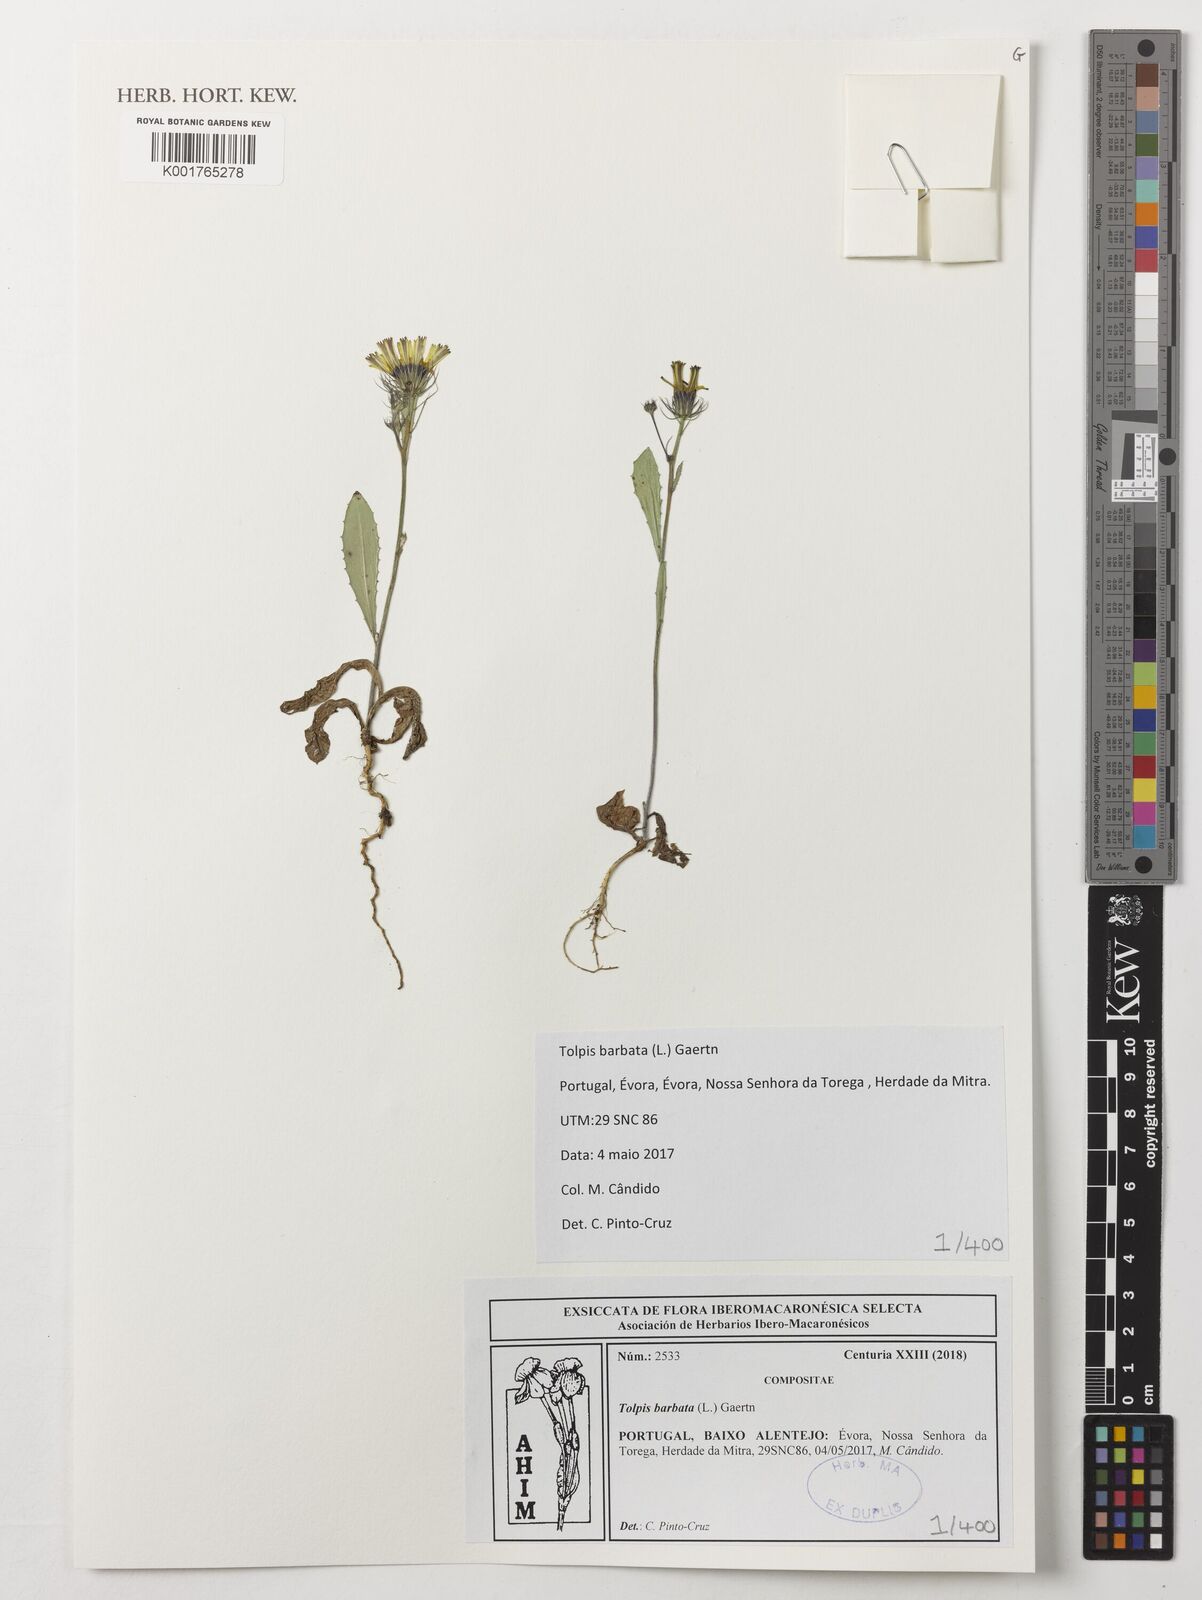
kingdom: Plantae
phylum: Tracheophyta
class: Magnoliopsida
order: Asterales
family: Asteraceae
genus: Tolpis
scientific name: Tolpis barbata
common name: Yellow hawkweed
